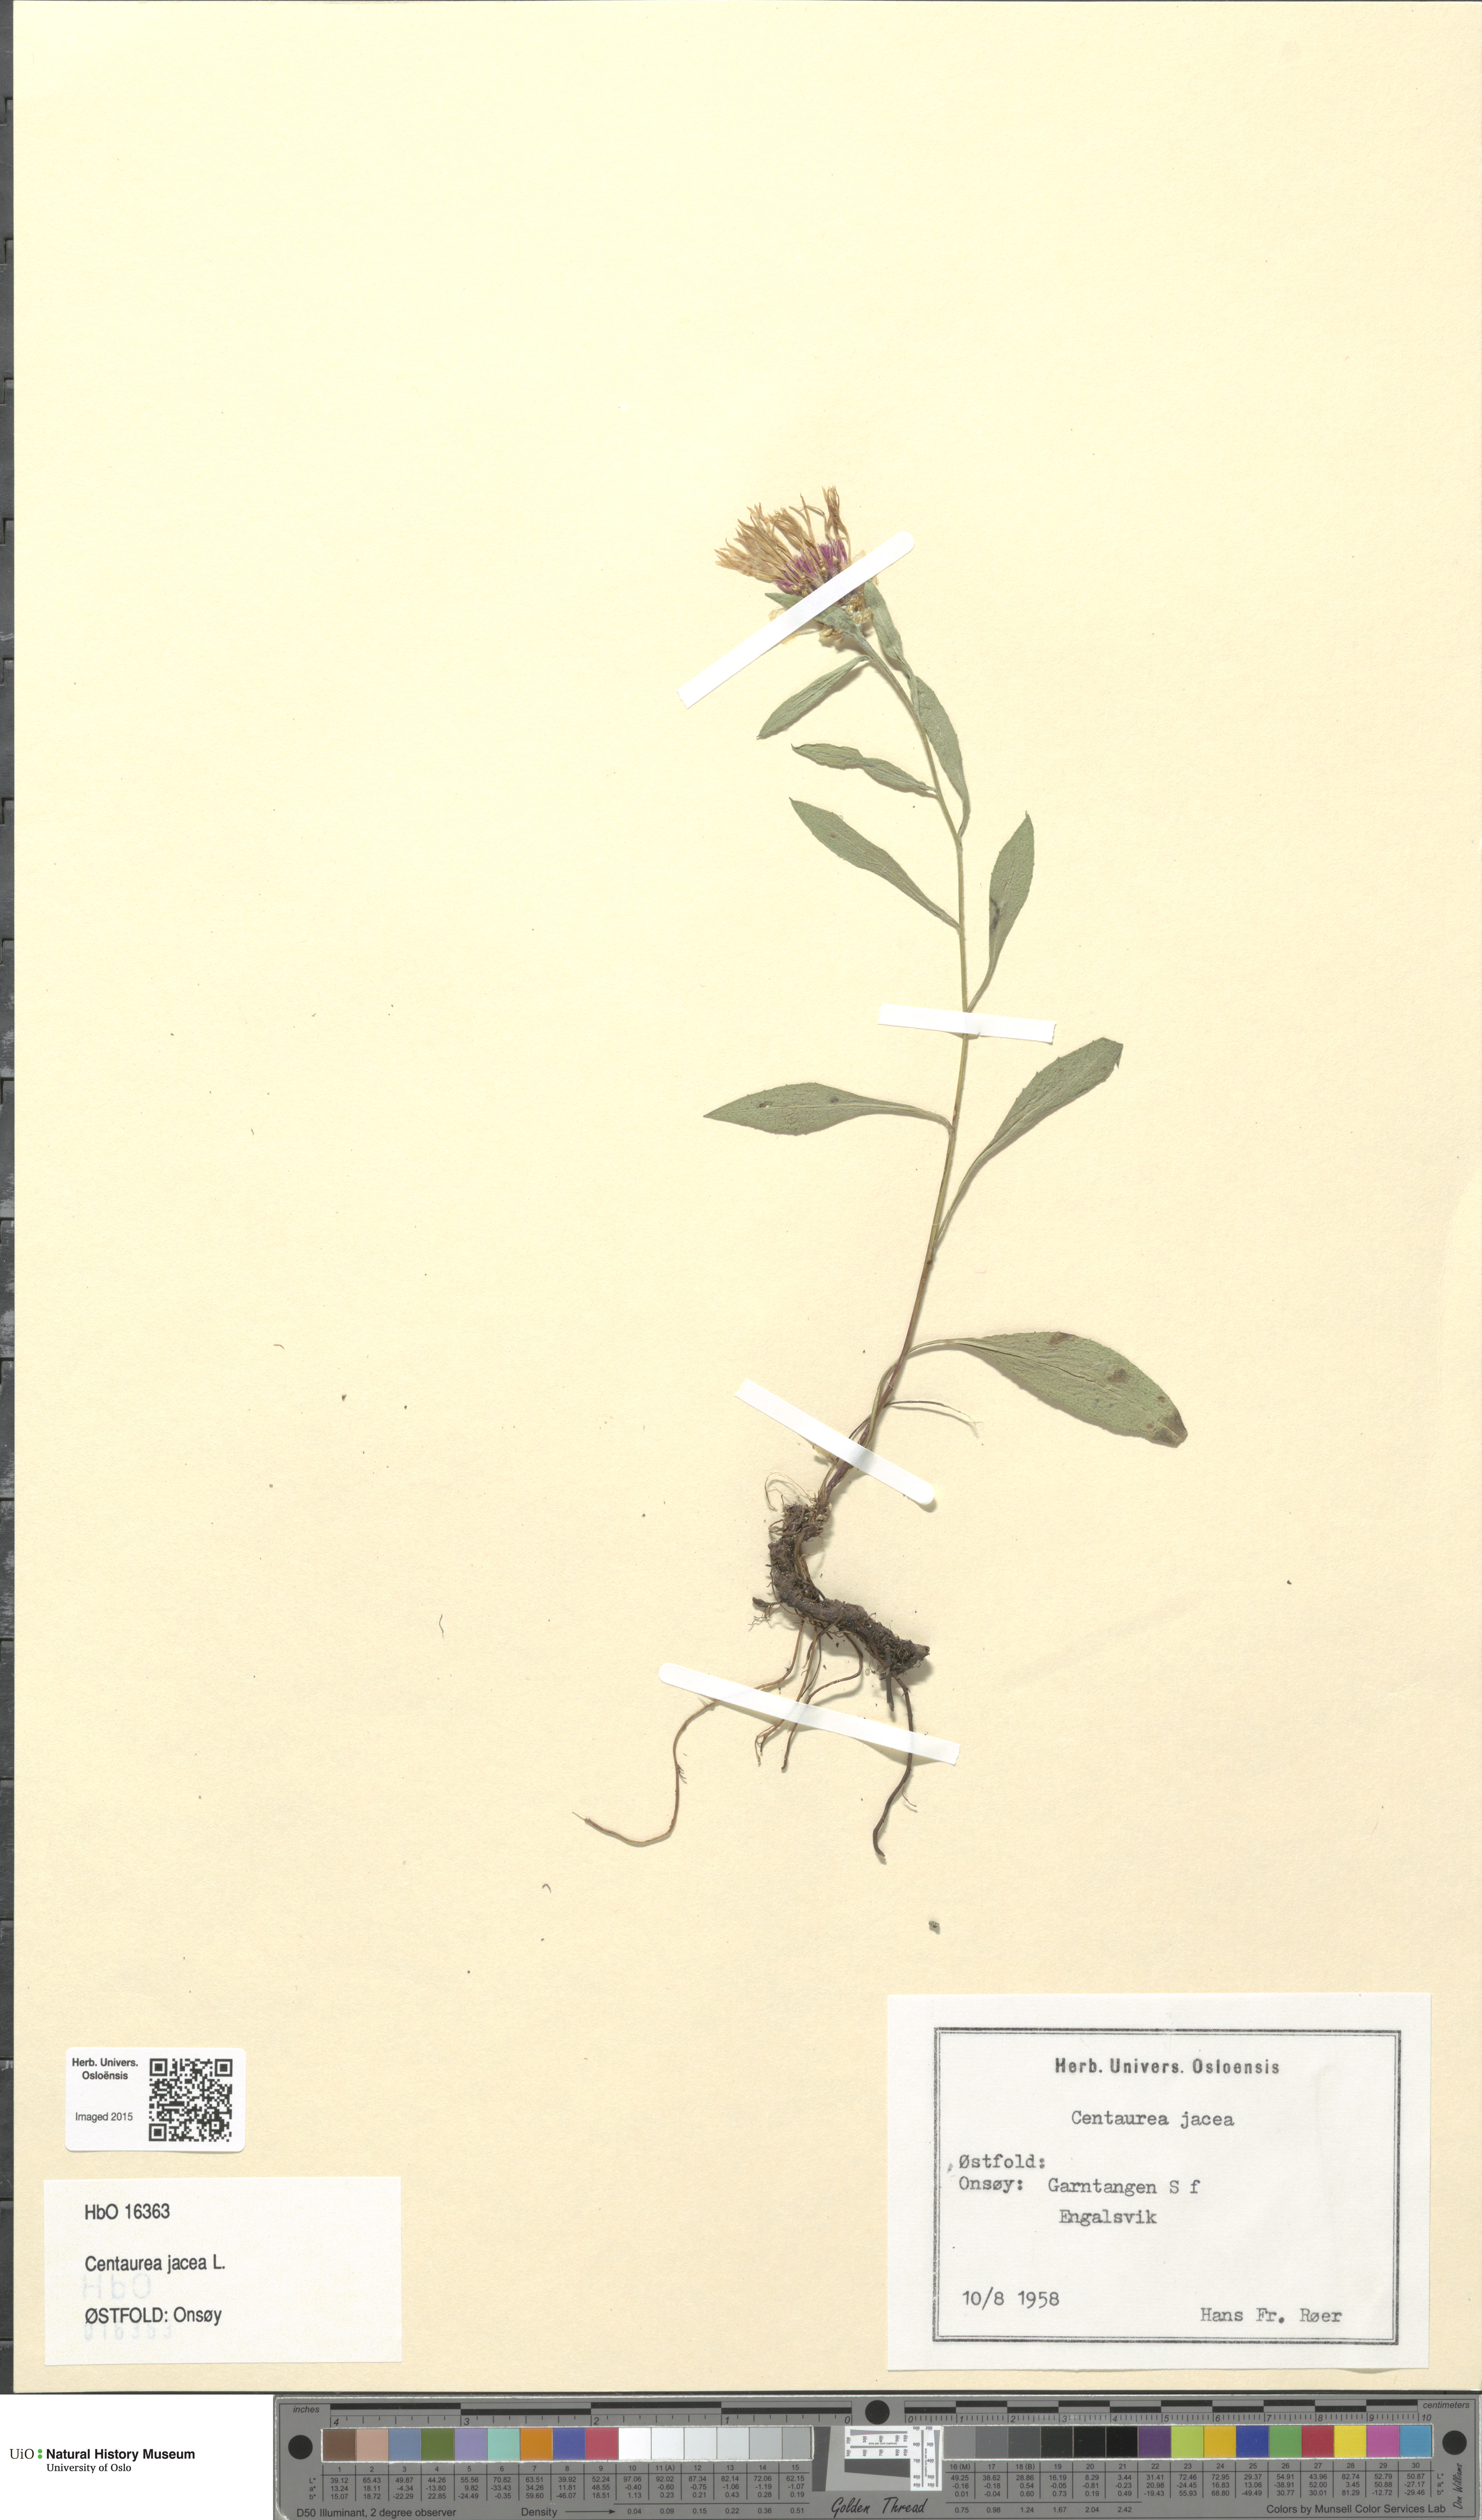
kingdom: Plantae
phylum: Tracheophyta
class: Magnoliopsida
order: Asterales
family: Asteraceae
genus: Centaurea
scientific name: Centaurea jacea
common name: Brown knapweed
